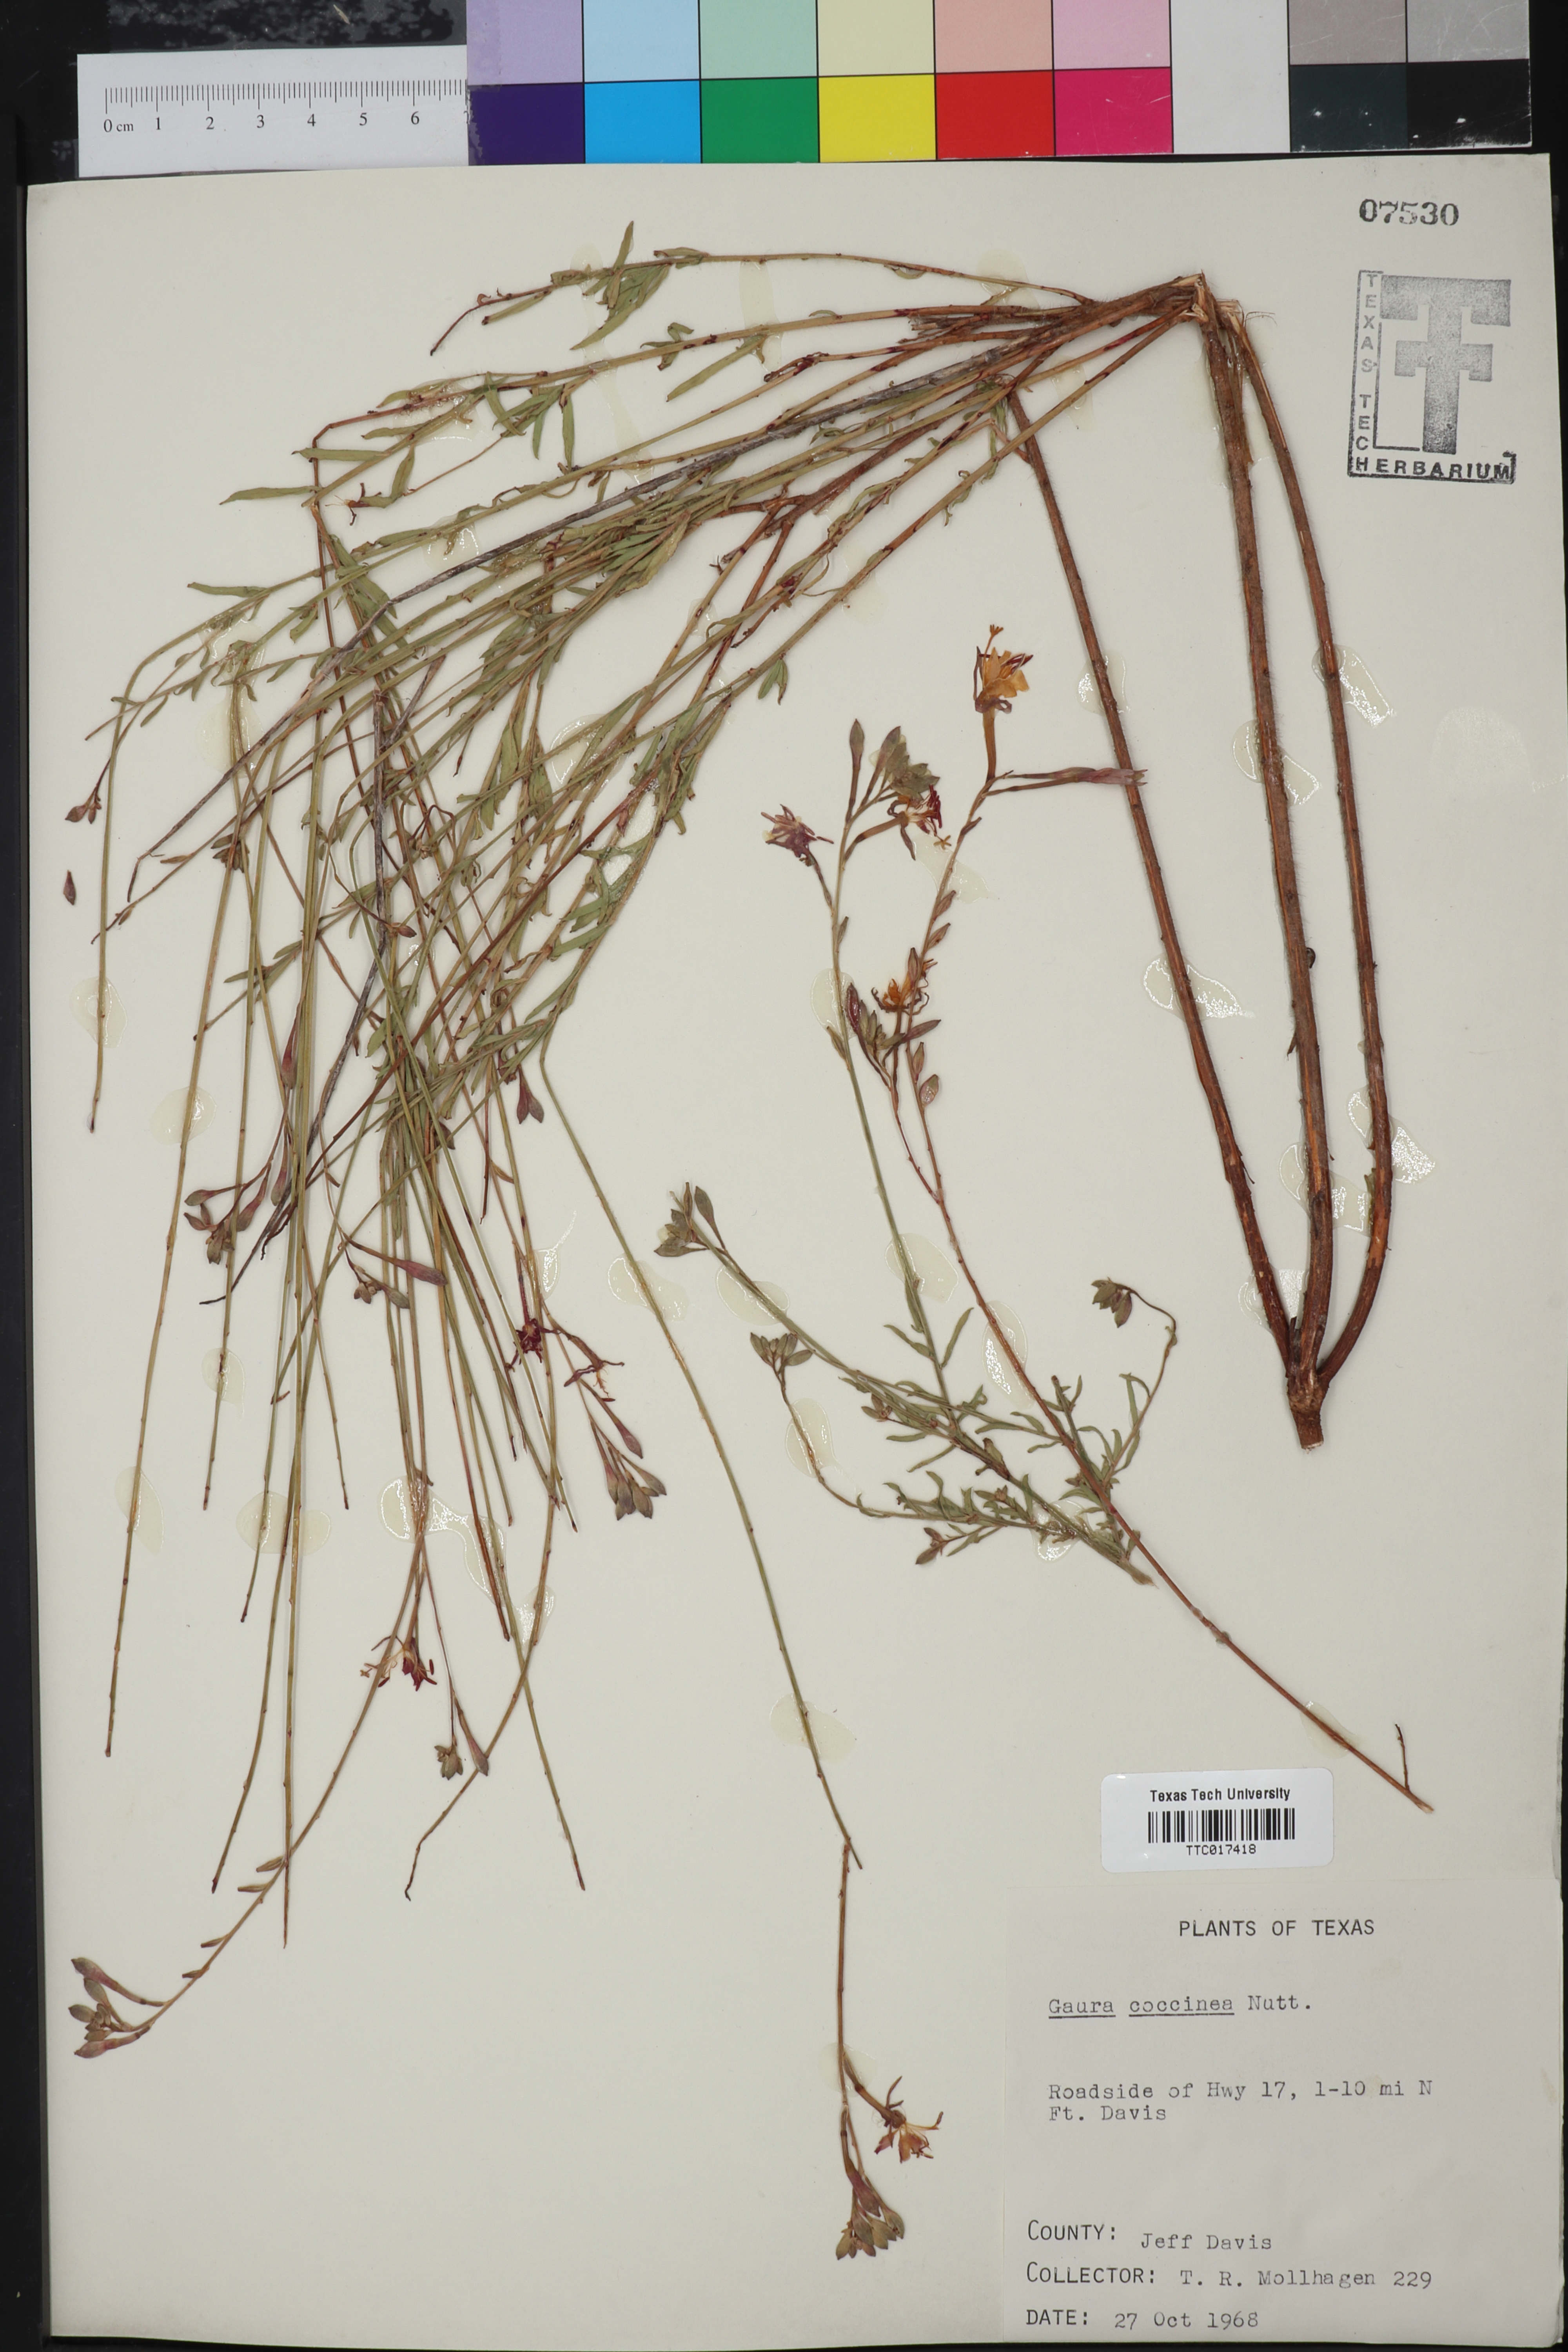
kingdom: Plantae
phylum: Tracheophyta
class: Magnoliopsida
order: Myrtales
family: Onagraceae
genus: Oenothera
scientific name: Oenothera suffrutescens
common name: Scarlet beeblossom
